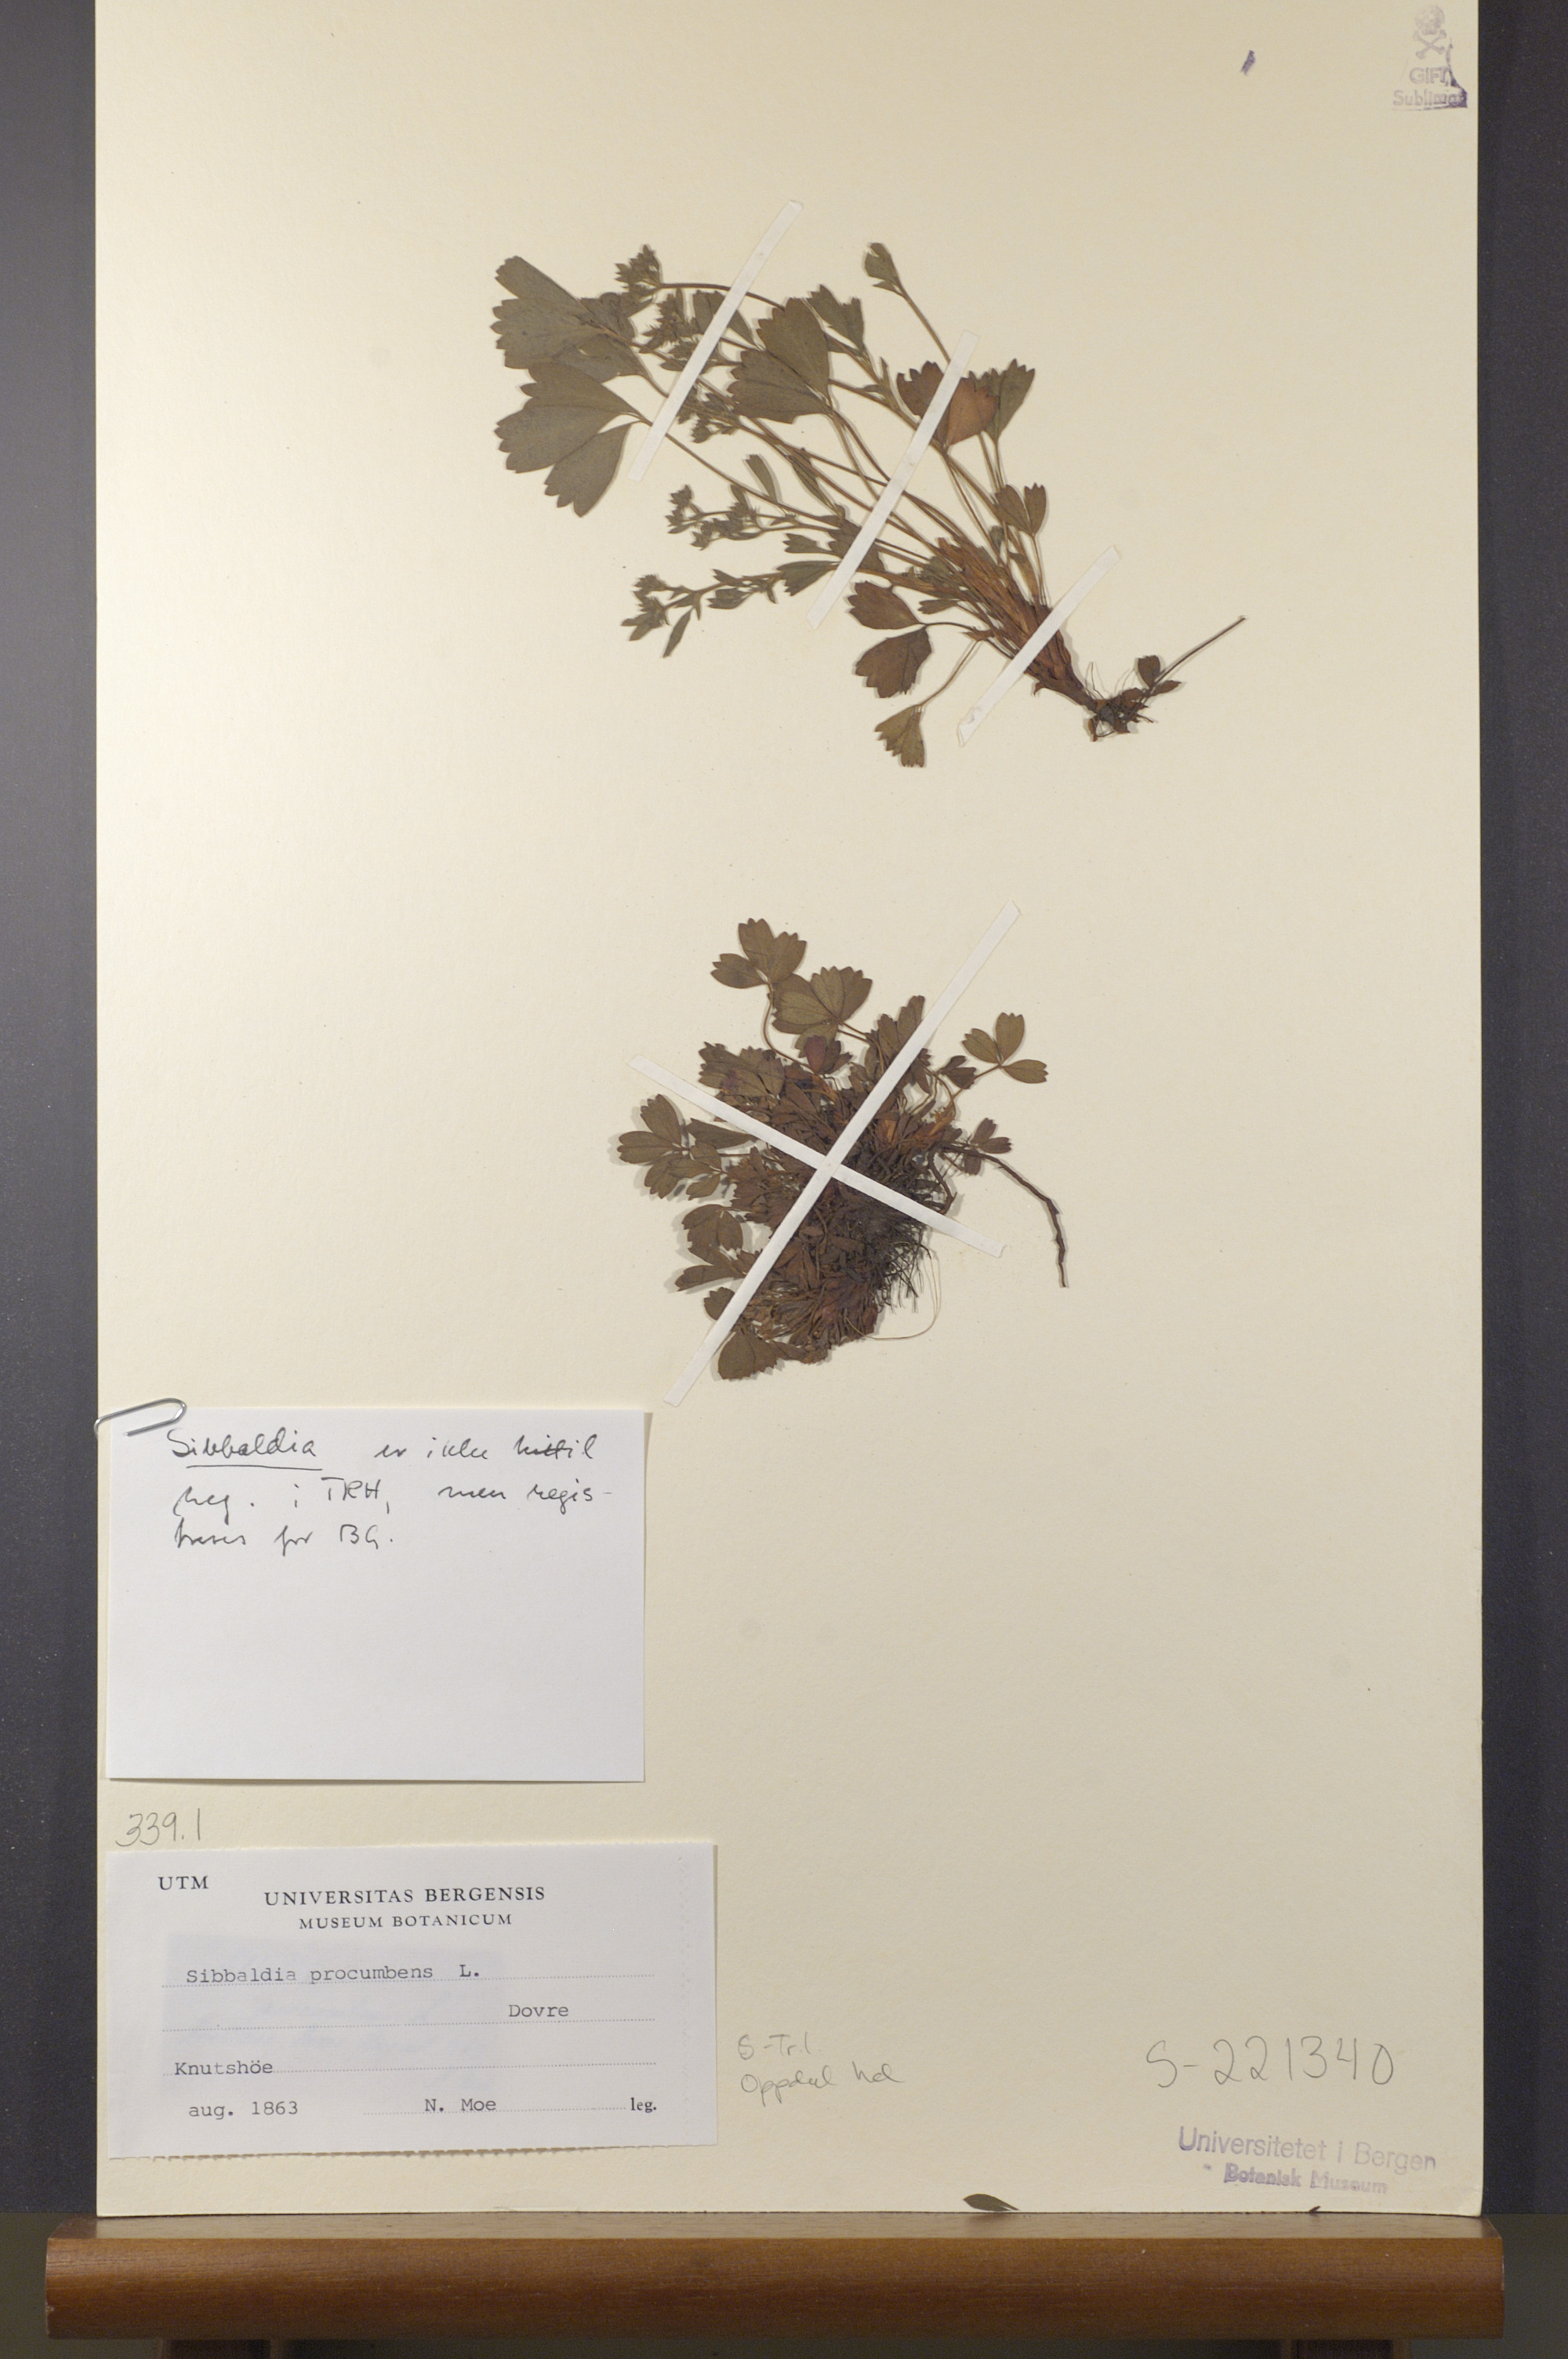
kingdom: Plantae
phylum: Tracheophyta
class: Magnoliopsida
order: Rosales
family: Rosaceae
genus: Sibbaldia
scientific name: Sibbaldia procumbens
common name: Creeping sibbaldia
